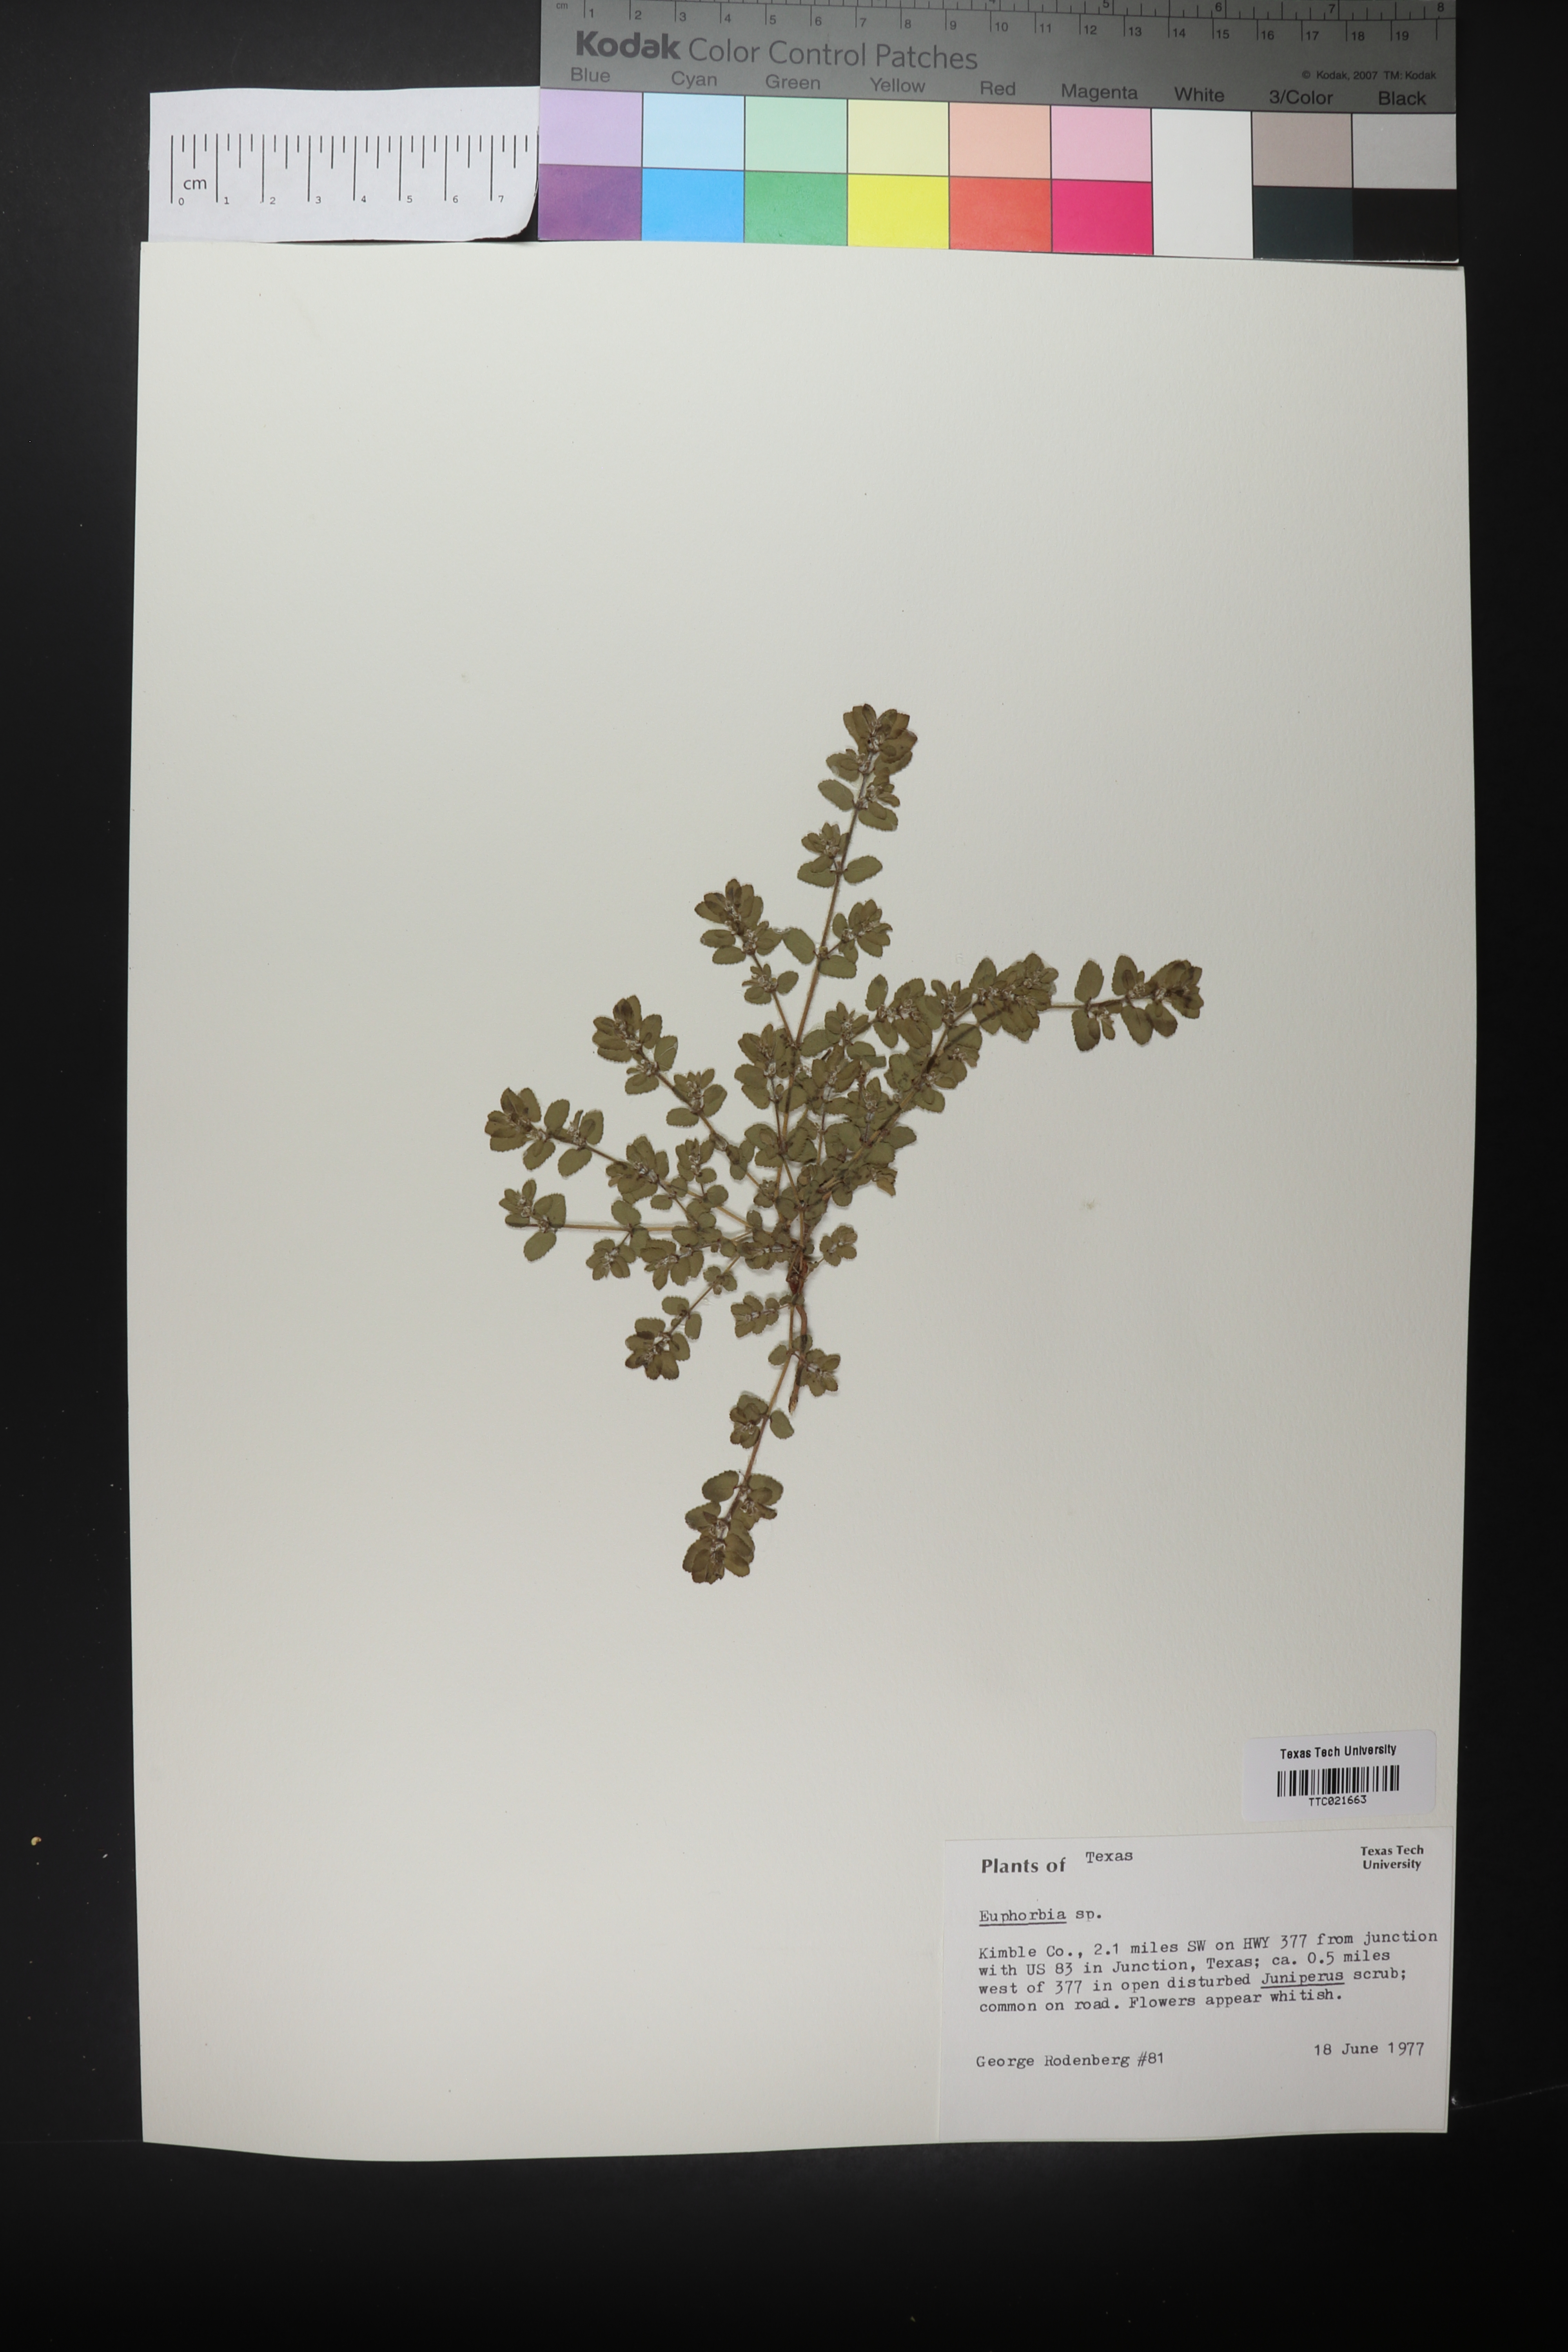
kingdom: Plantae
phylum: Tracheophyta
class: Magnoliopsida
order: Malpighiales
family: Euphorbiaceae
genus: Euphorbia
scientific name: Euphorbia stictospora
